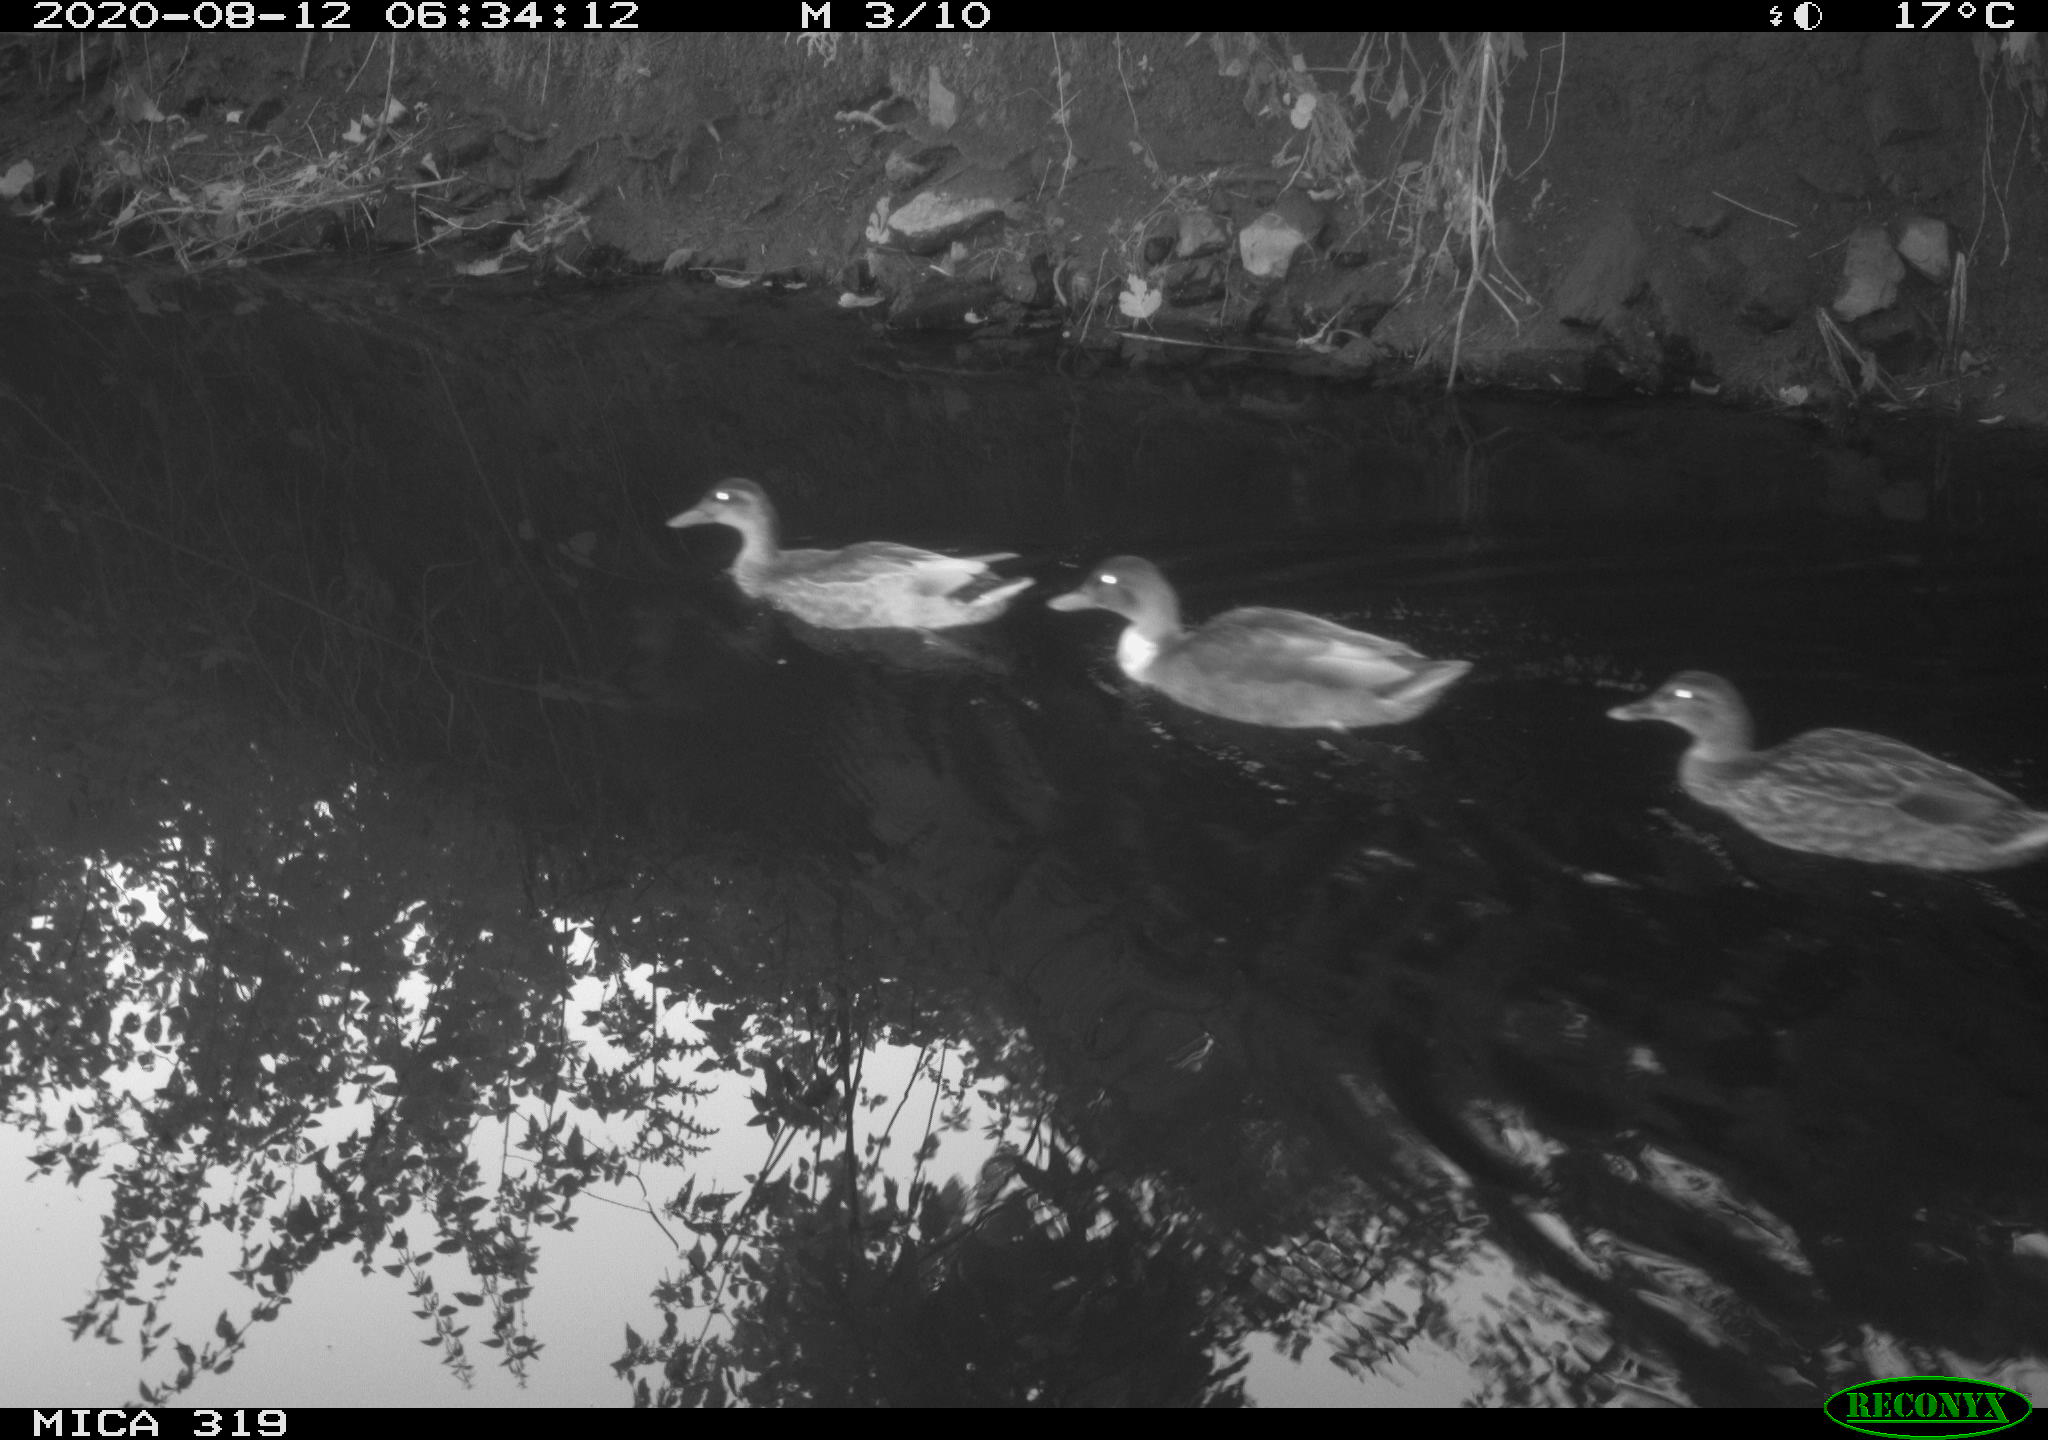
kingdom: Animalia
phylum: Chordata
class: Aves
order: Anseriformes
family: Anatidae
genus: Anas
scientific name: Anas platyrhynchos
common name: Mallard
